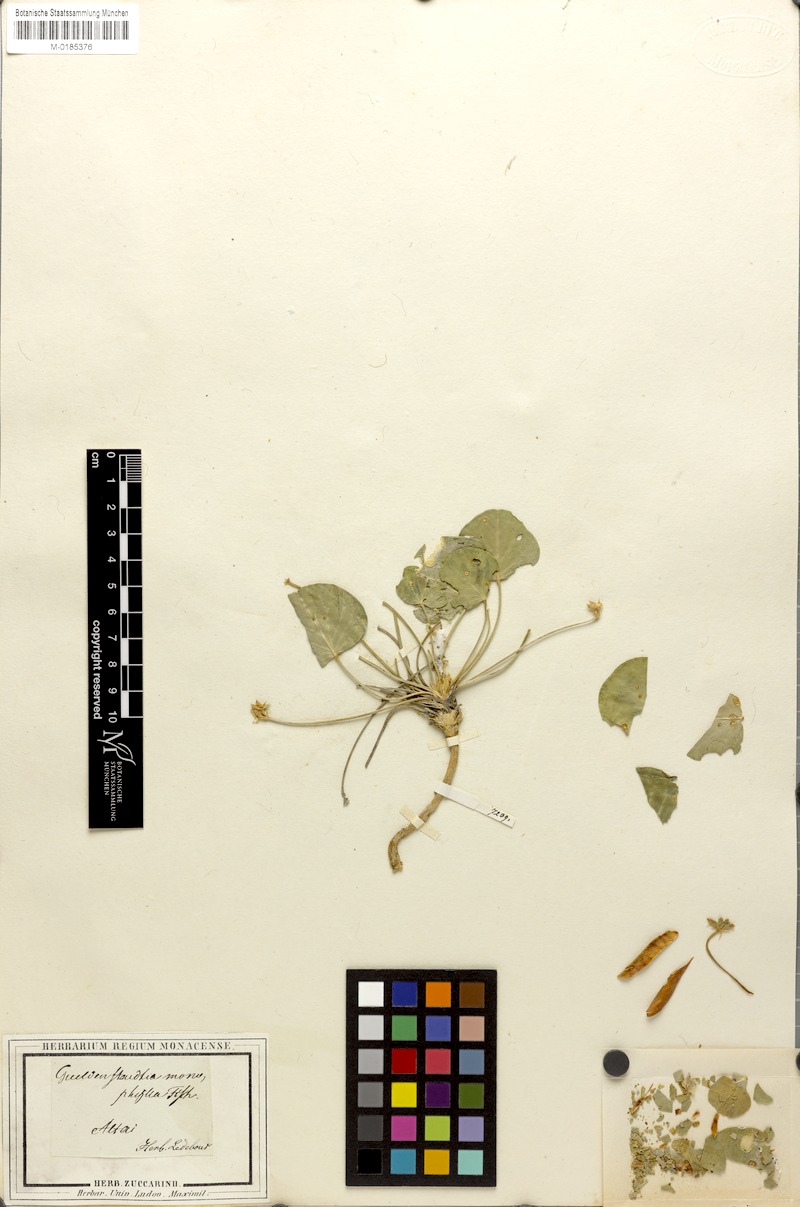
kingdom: Plantae
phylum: Tracheophyta
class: Magnoliopsida
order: Fabales
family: Fabaceae
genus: Gueldenstaedtia
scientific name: Gueldenstaedtia monophylla
